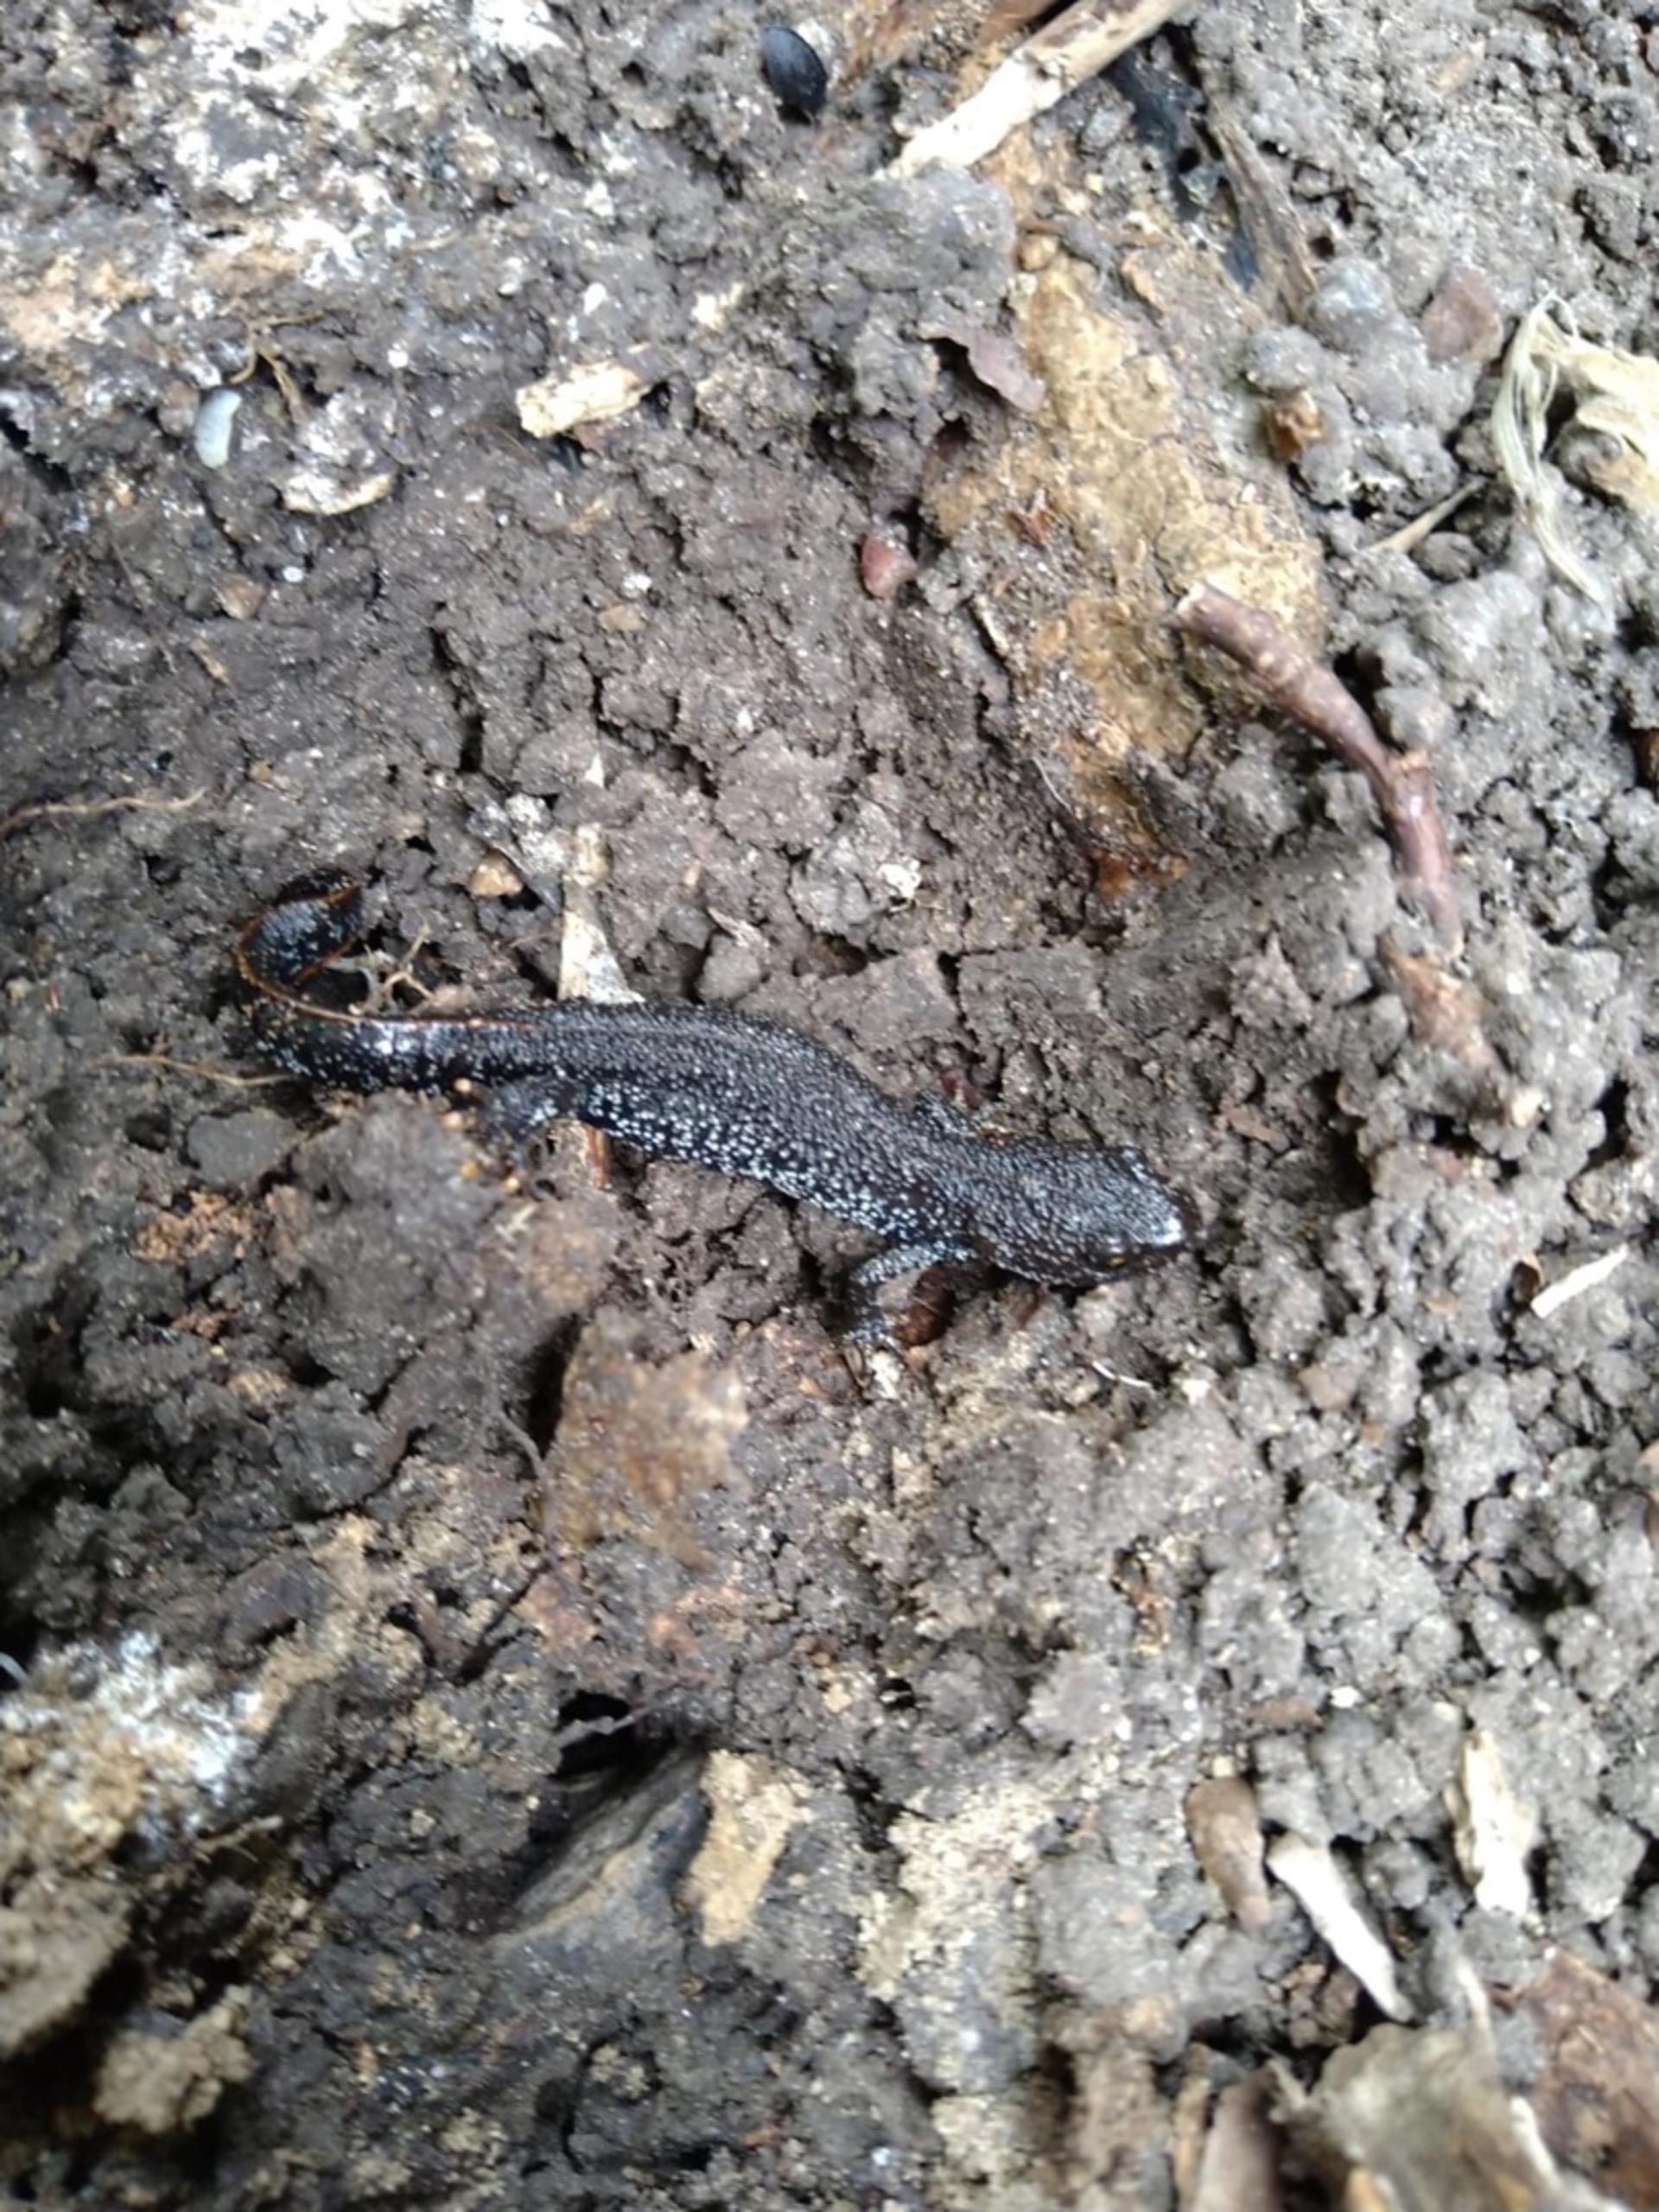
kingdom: Animalia
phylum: Chordata
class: Amphibia
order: Caudata
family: Salamandridae
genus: Triturus
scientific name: Triturus cristatus
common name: Stor vandsalamander
